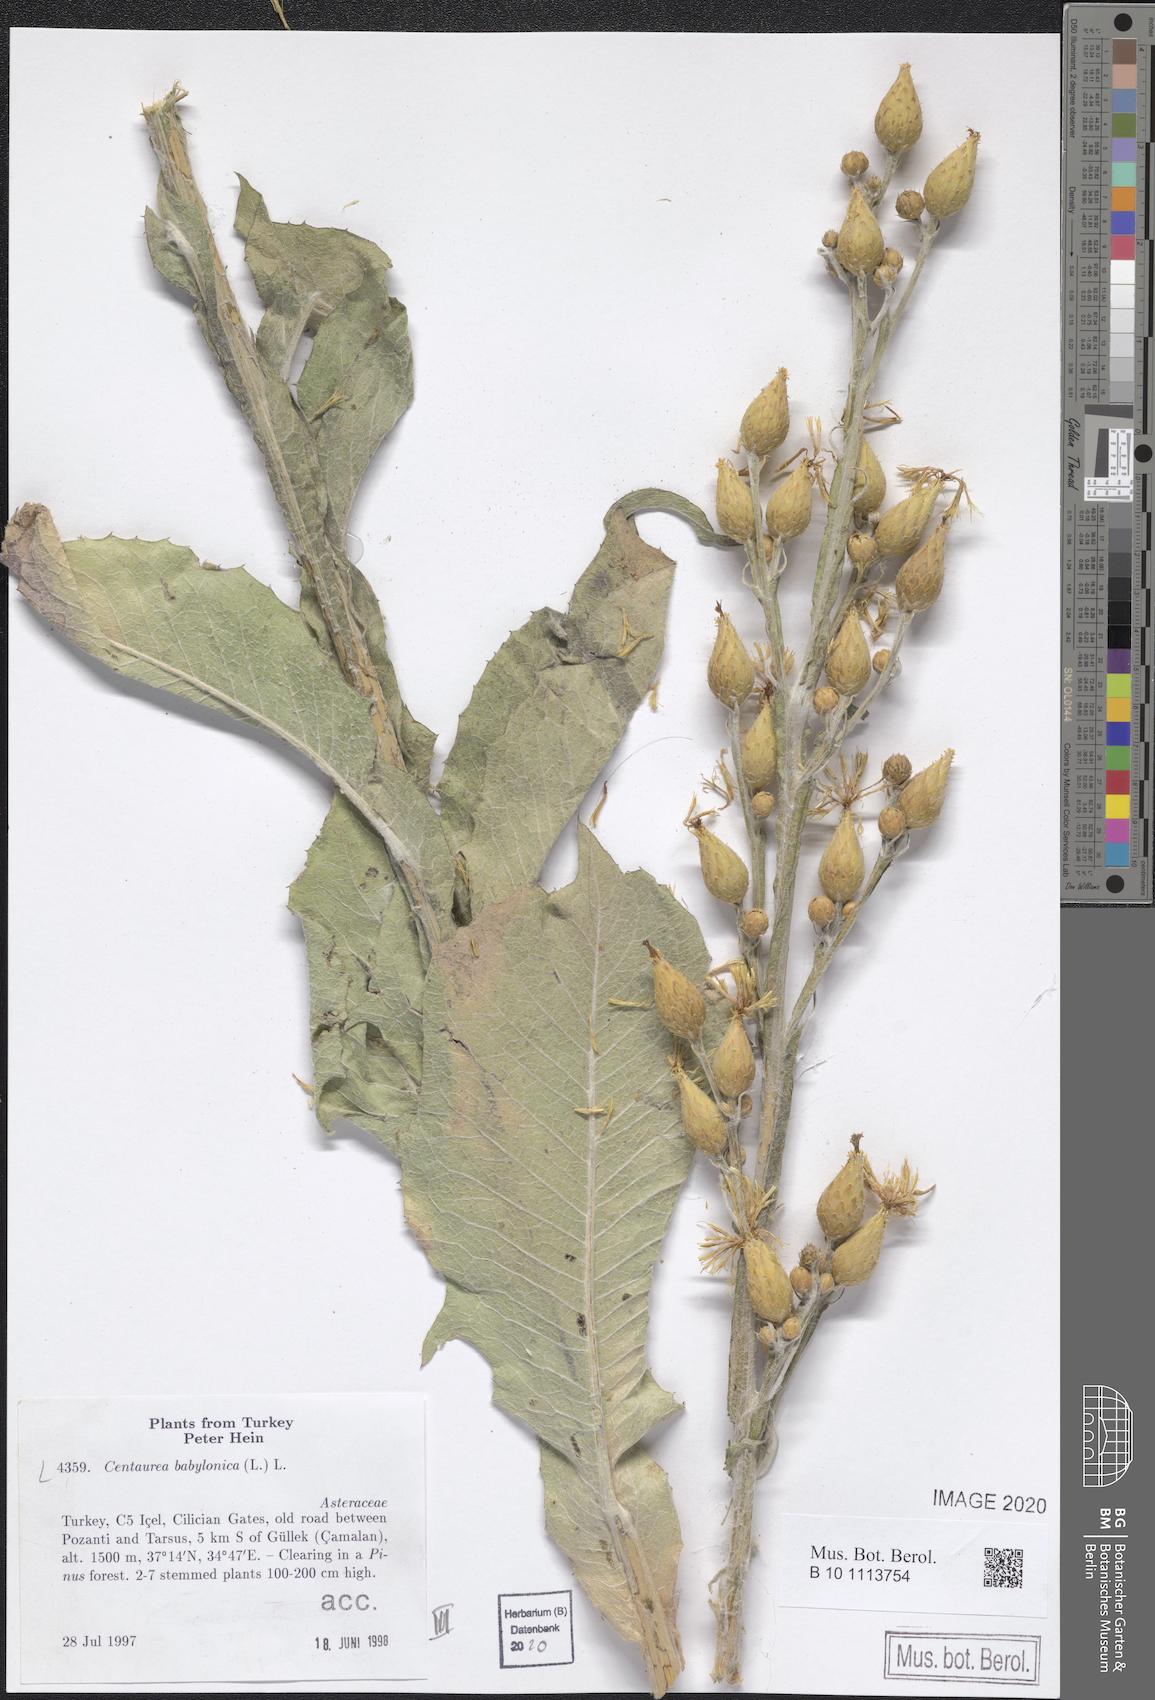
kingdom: Plantae
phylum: Tracheophyta
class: Magnoliopsida
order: Asterales
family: Asteraceae
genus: Centaurea
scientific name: Centaurea babylonica
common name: Syrian knapweed
